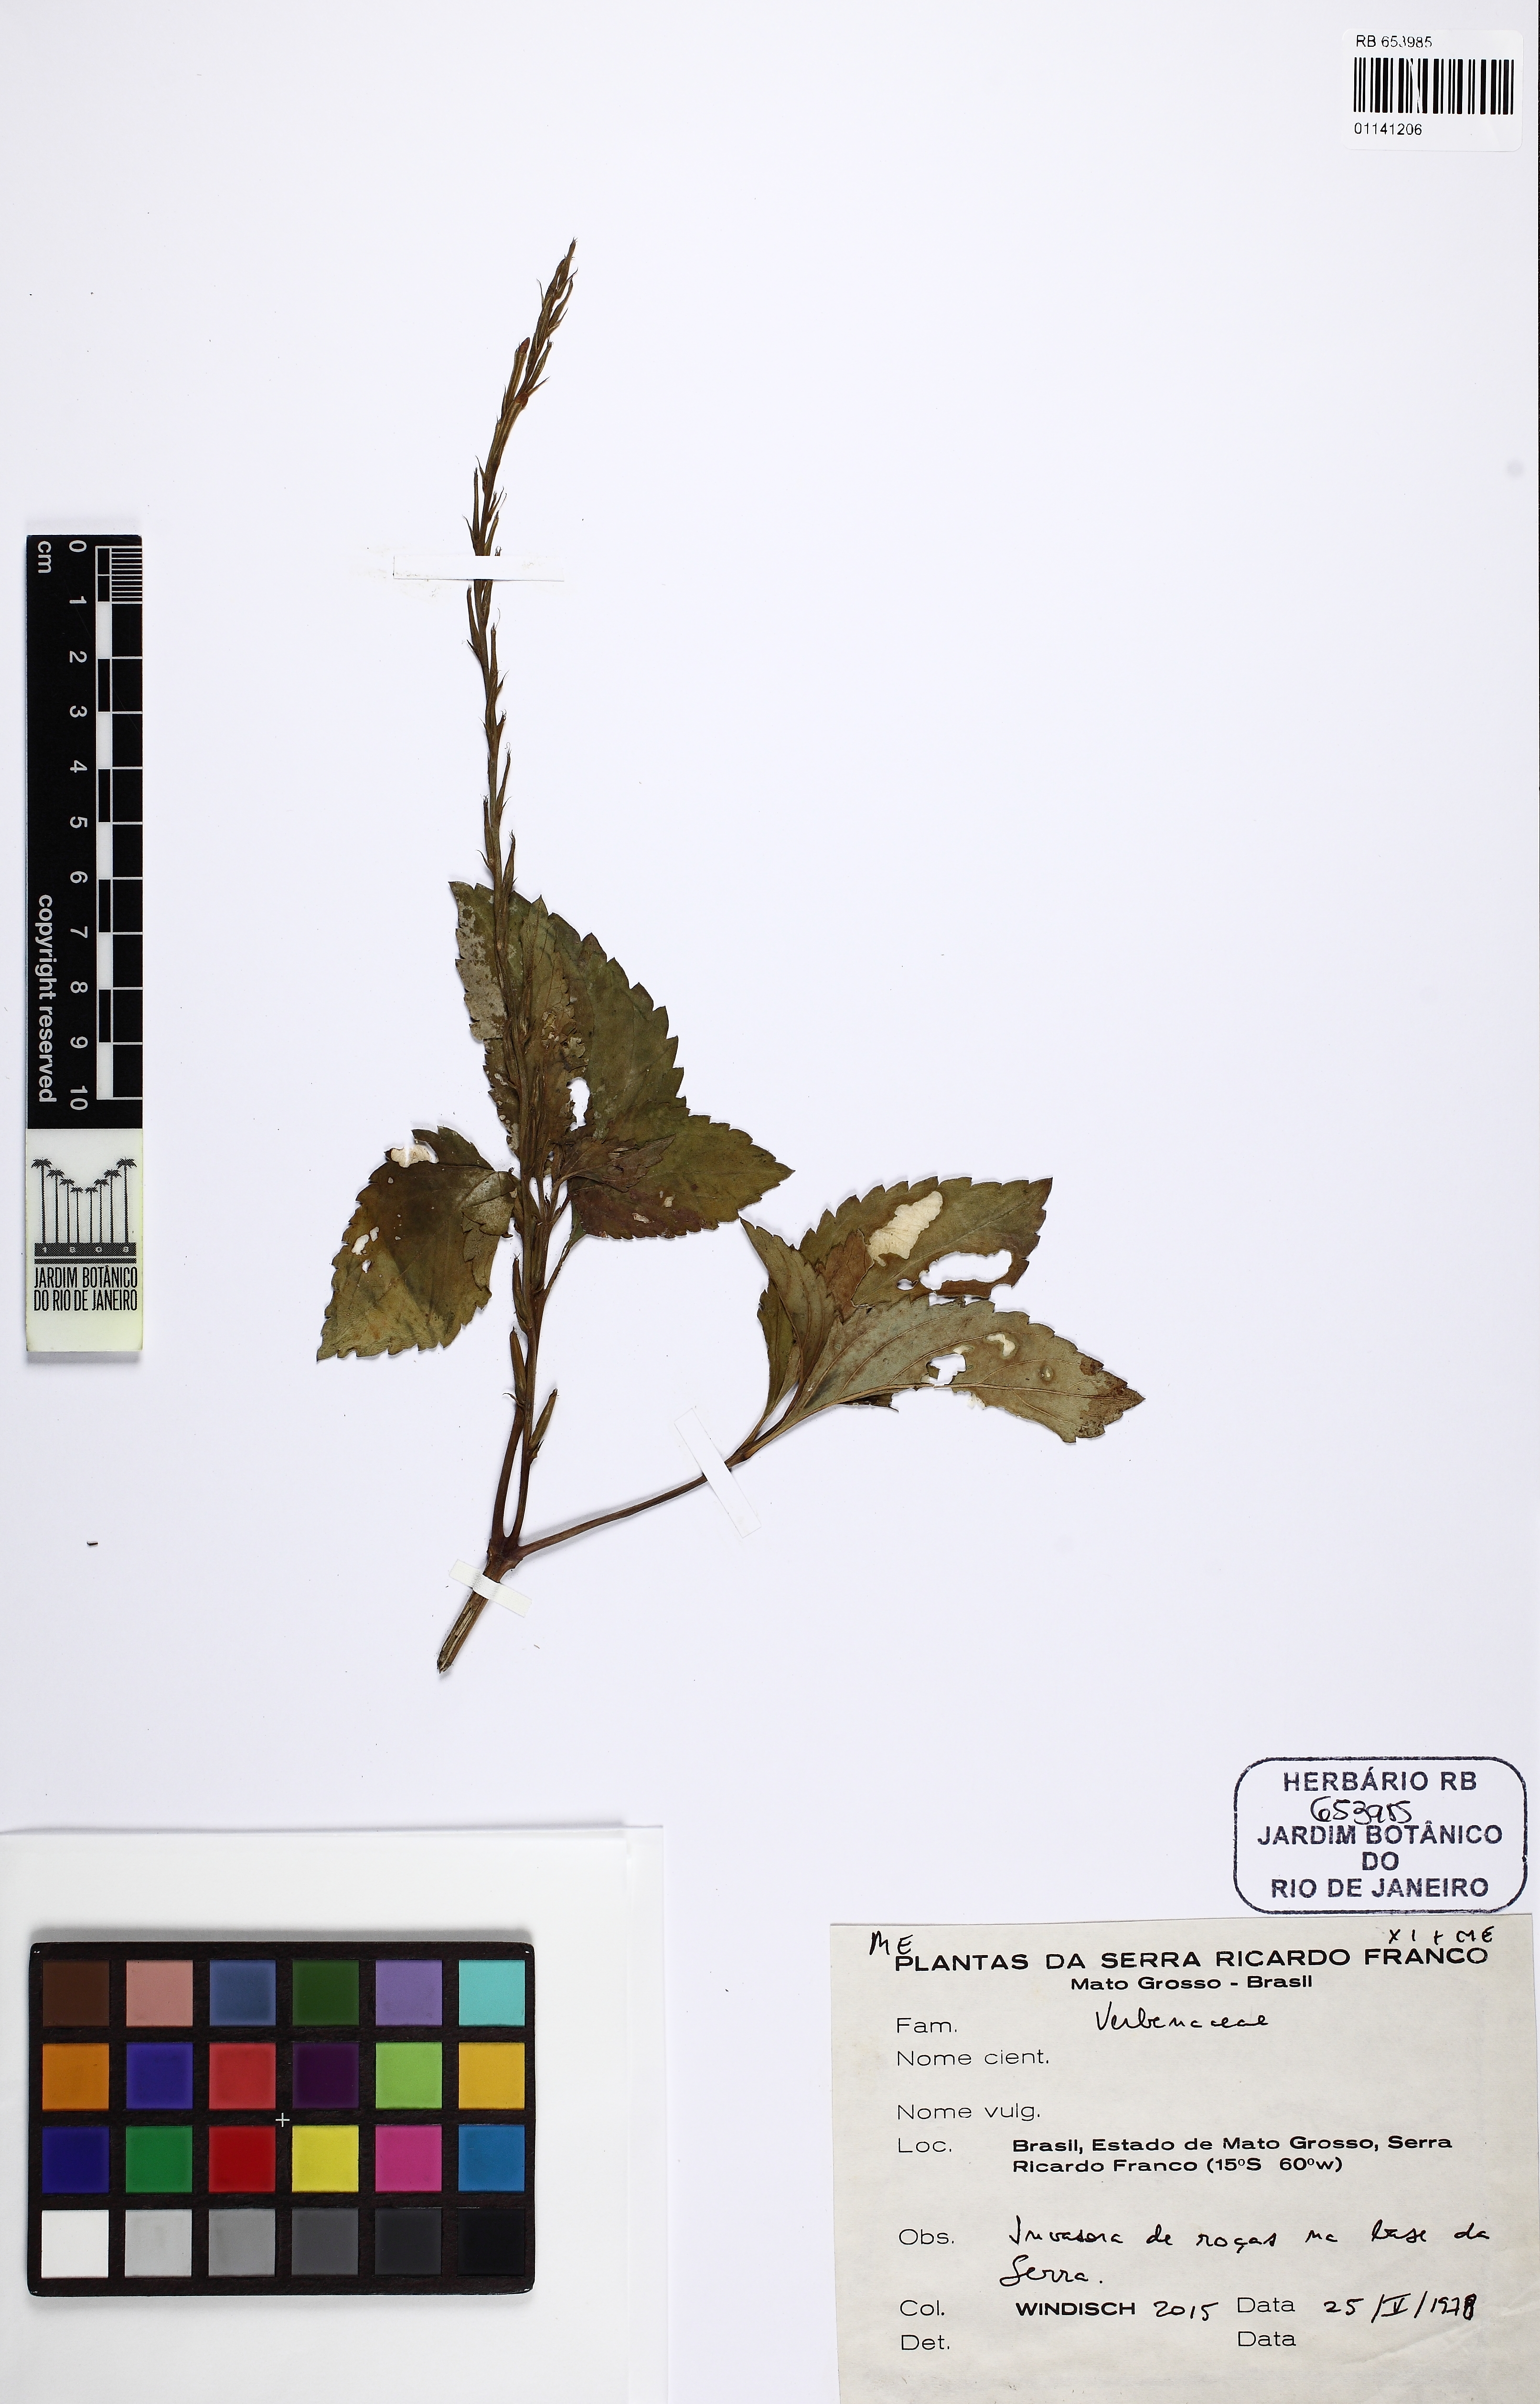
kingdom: Plantae
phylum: Tracheophyta
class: Magnoliopsida
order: Lamiales
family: Verbenaceae
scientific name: Verbenaceae
